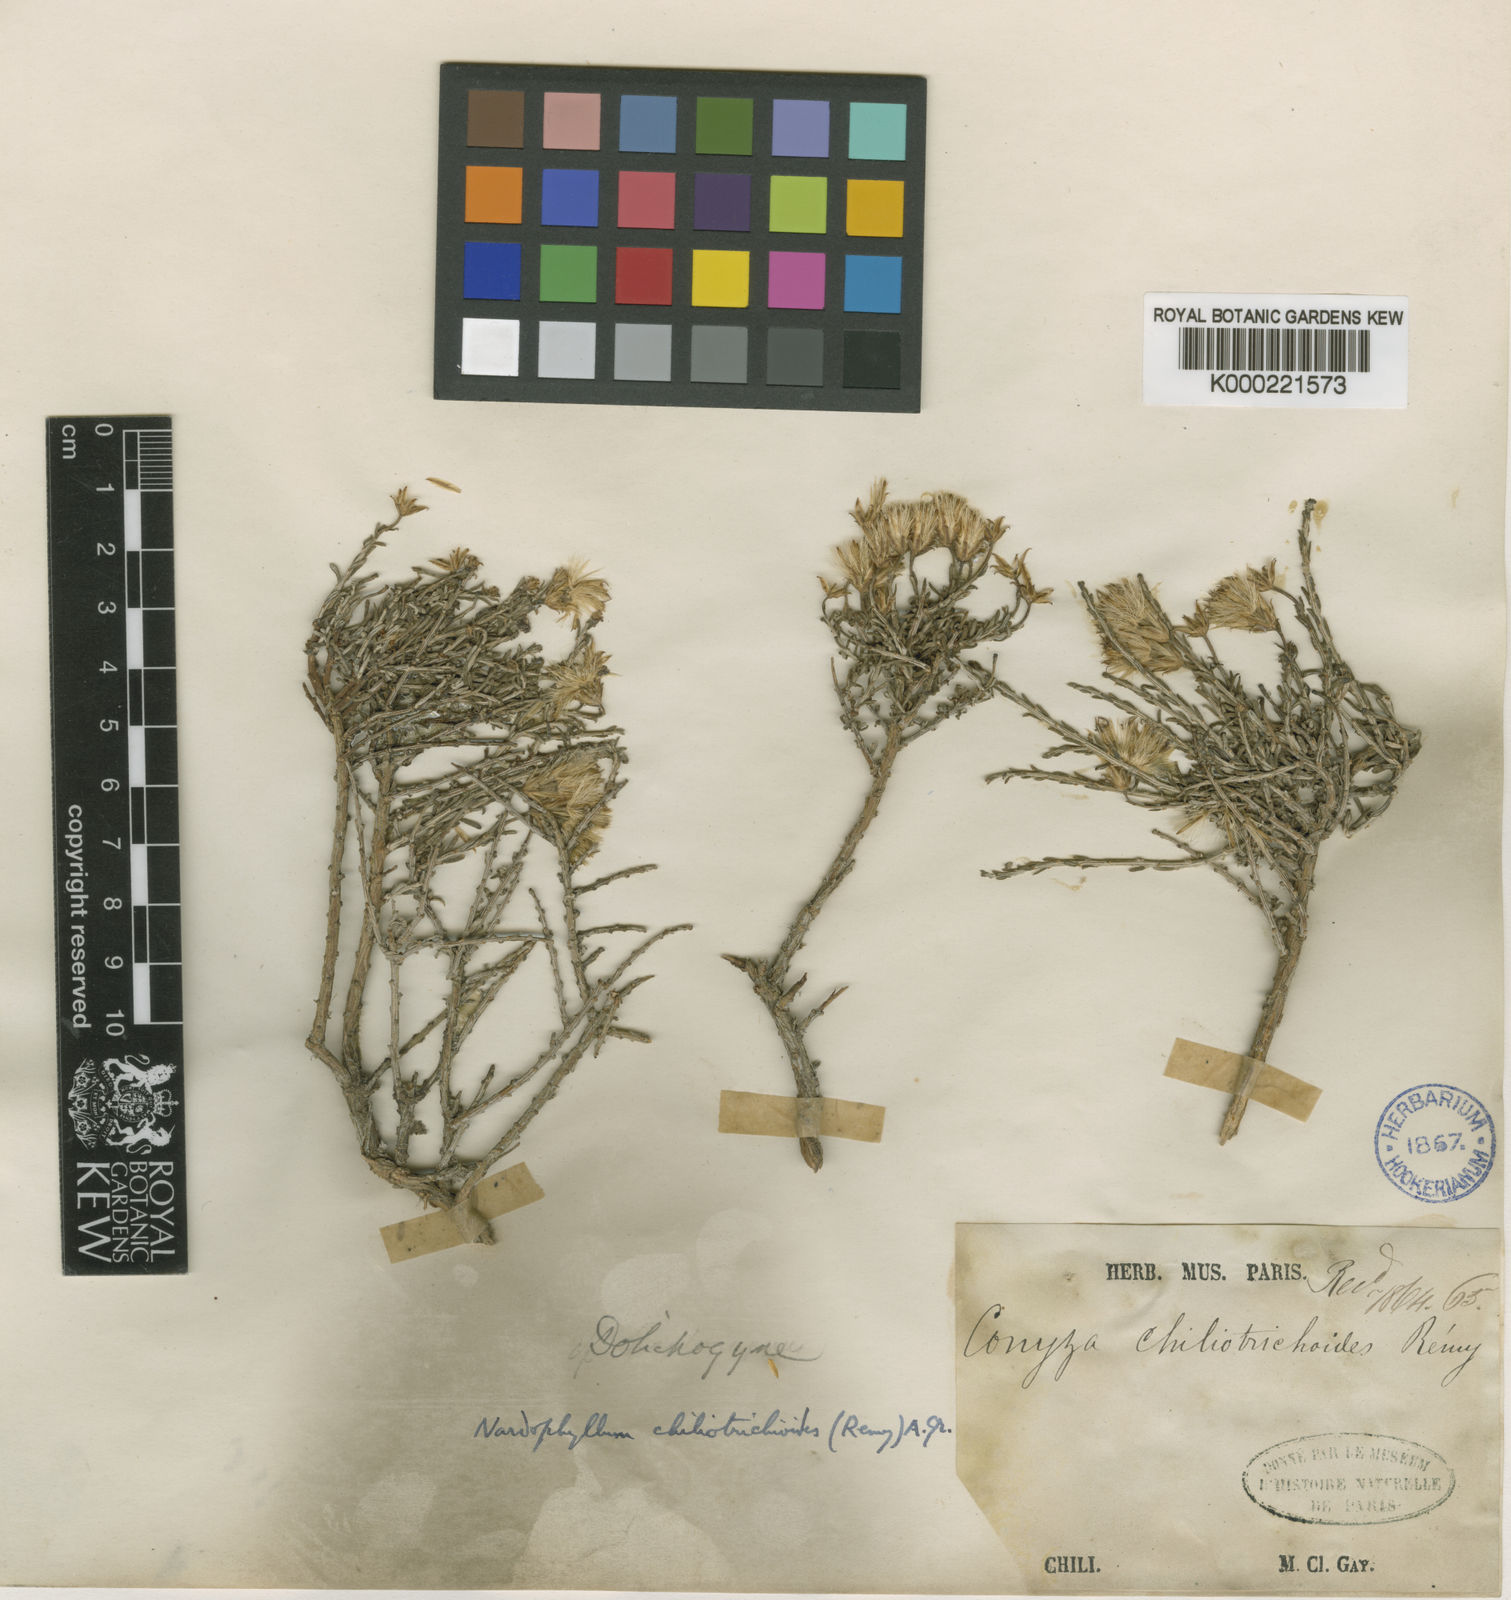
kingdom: Plantae
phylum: Tracheophyta
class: Magnoliopsida
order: Asterales
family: Asteraceae
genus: Nardophyllum
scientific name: Nardophyllum chiliotrichoides
